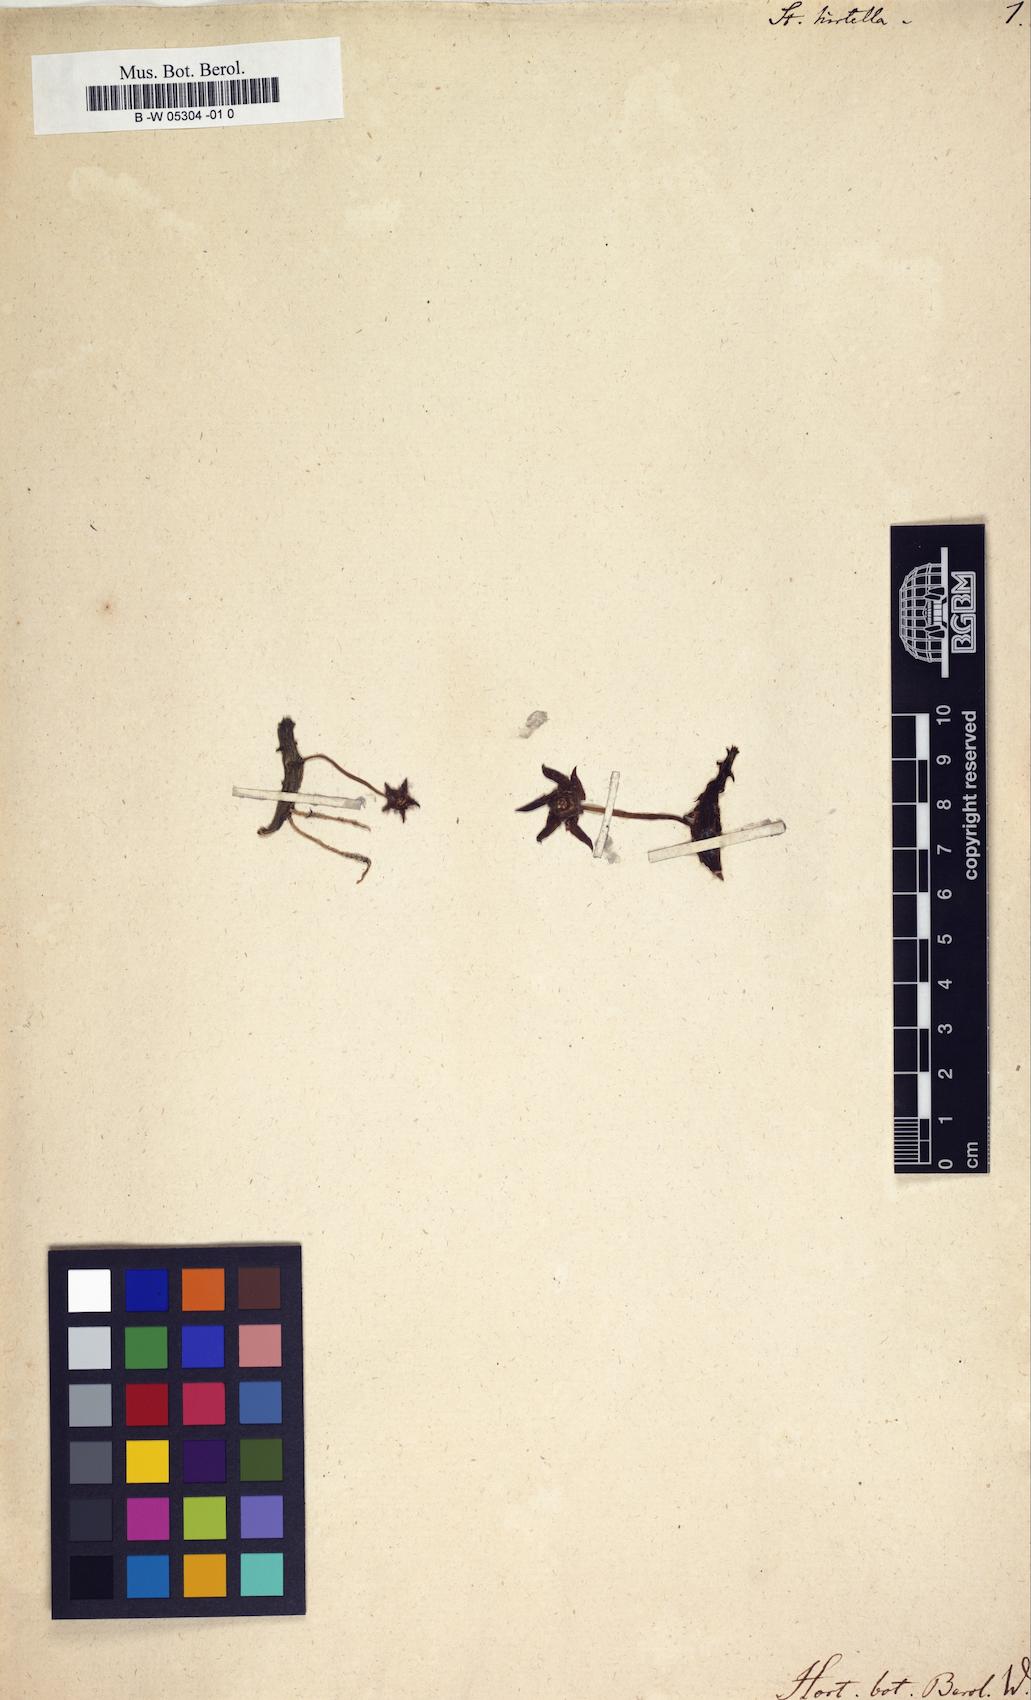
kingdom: Plantae
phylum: Tracheophyta
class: Magnoliopsida
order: Gentianales
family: Apocynaceae
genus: Ceropegia
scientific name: Ceropegia caespitosa
